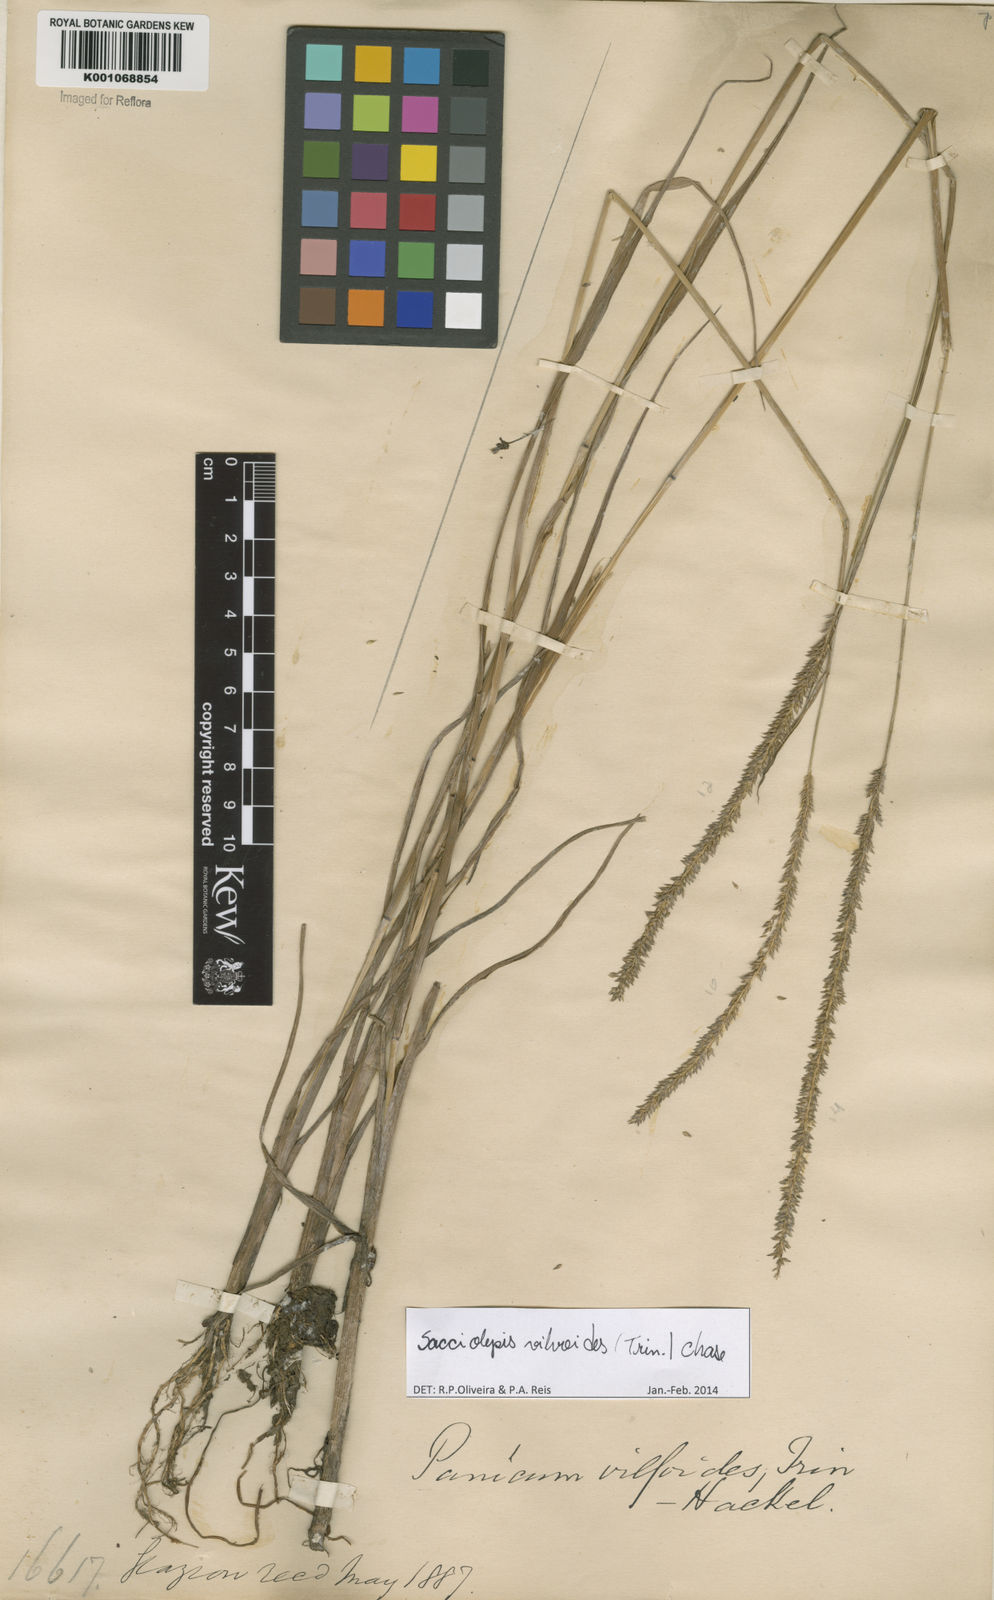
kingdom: Plantae
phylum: Tracheophyta
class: Liliopsida
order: Poales
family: Poaceae
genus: Sacciolepis
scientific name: Sacciolepis vilvoides
